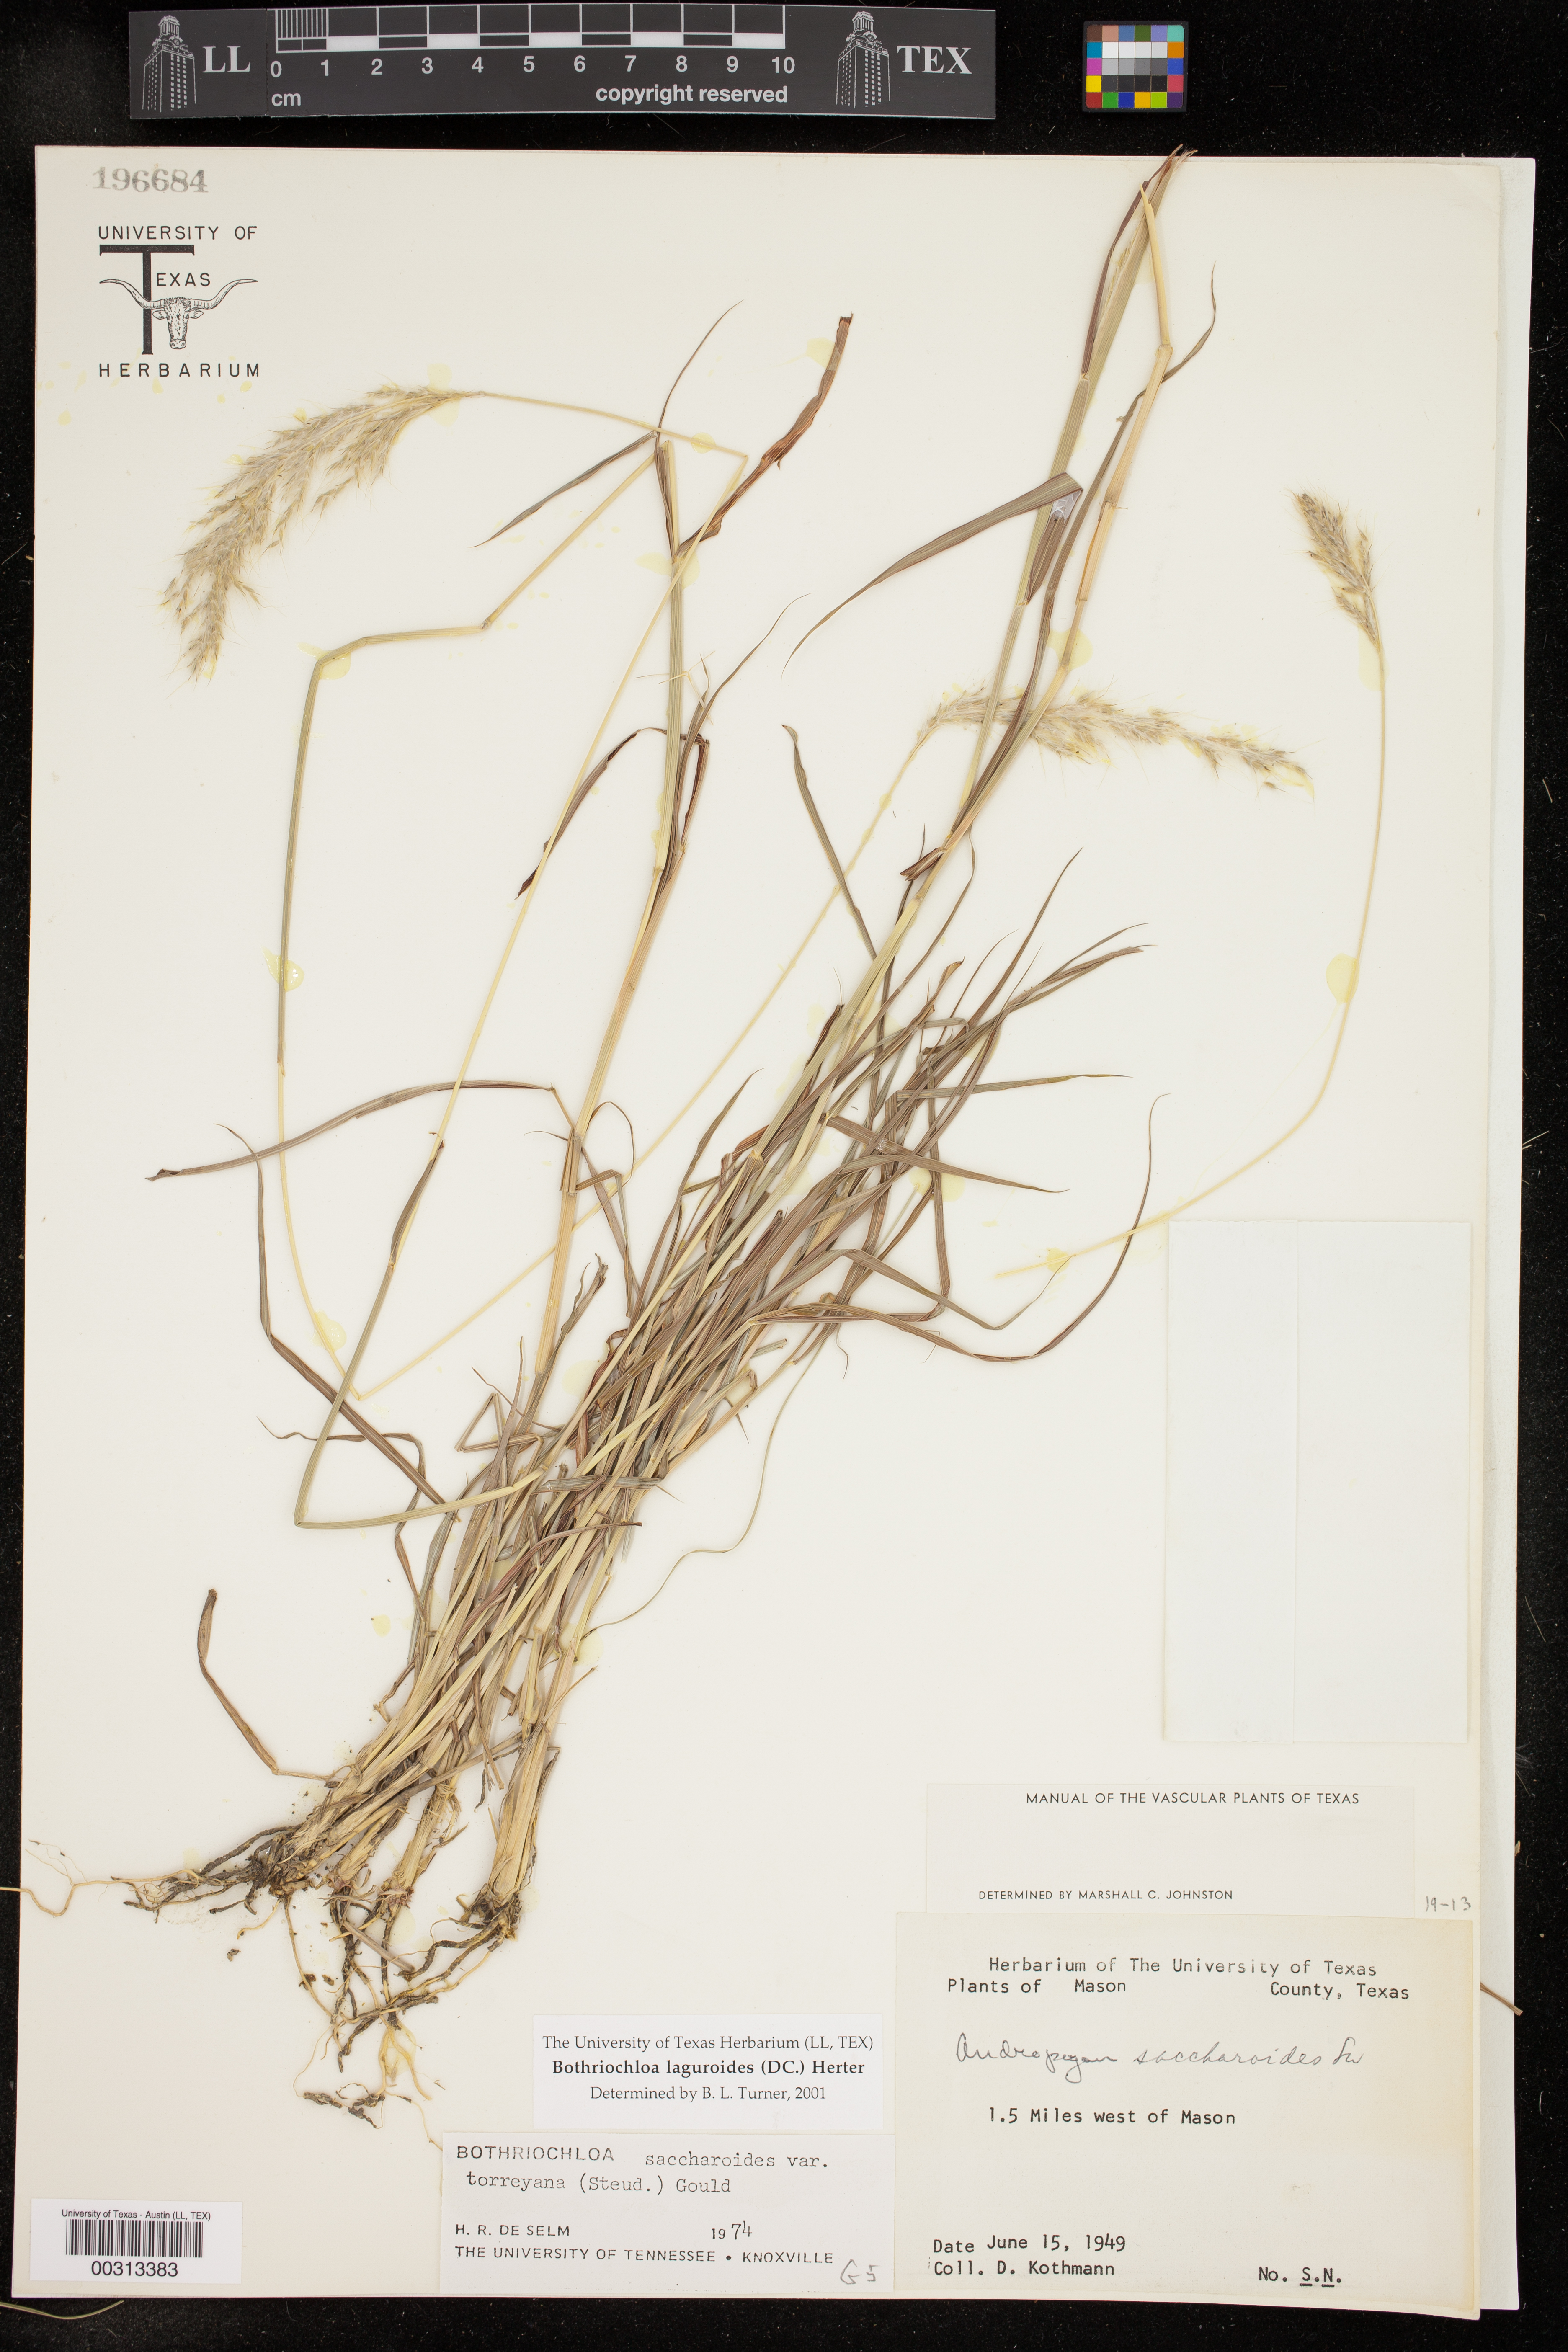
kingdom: Plantae
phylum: Tracheophyta
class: Liliopsida
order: Poales
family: Poaceae
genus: Bothriochloa
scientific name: Bothriochloa laguroides
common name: Silver bluestem
